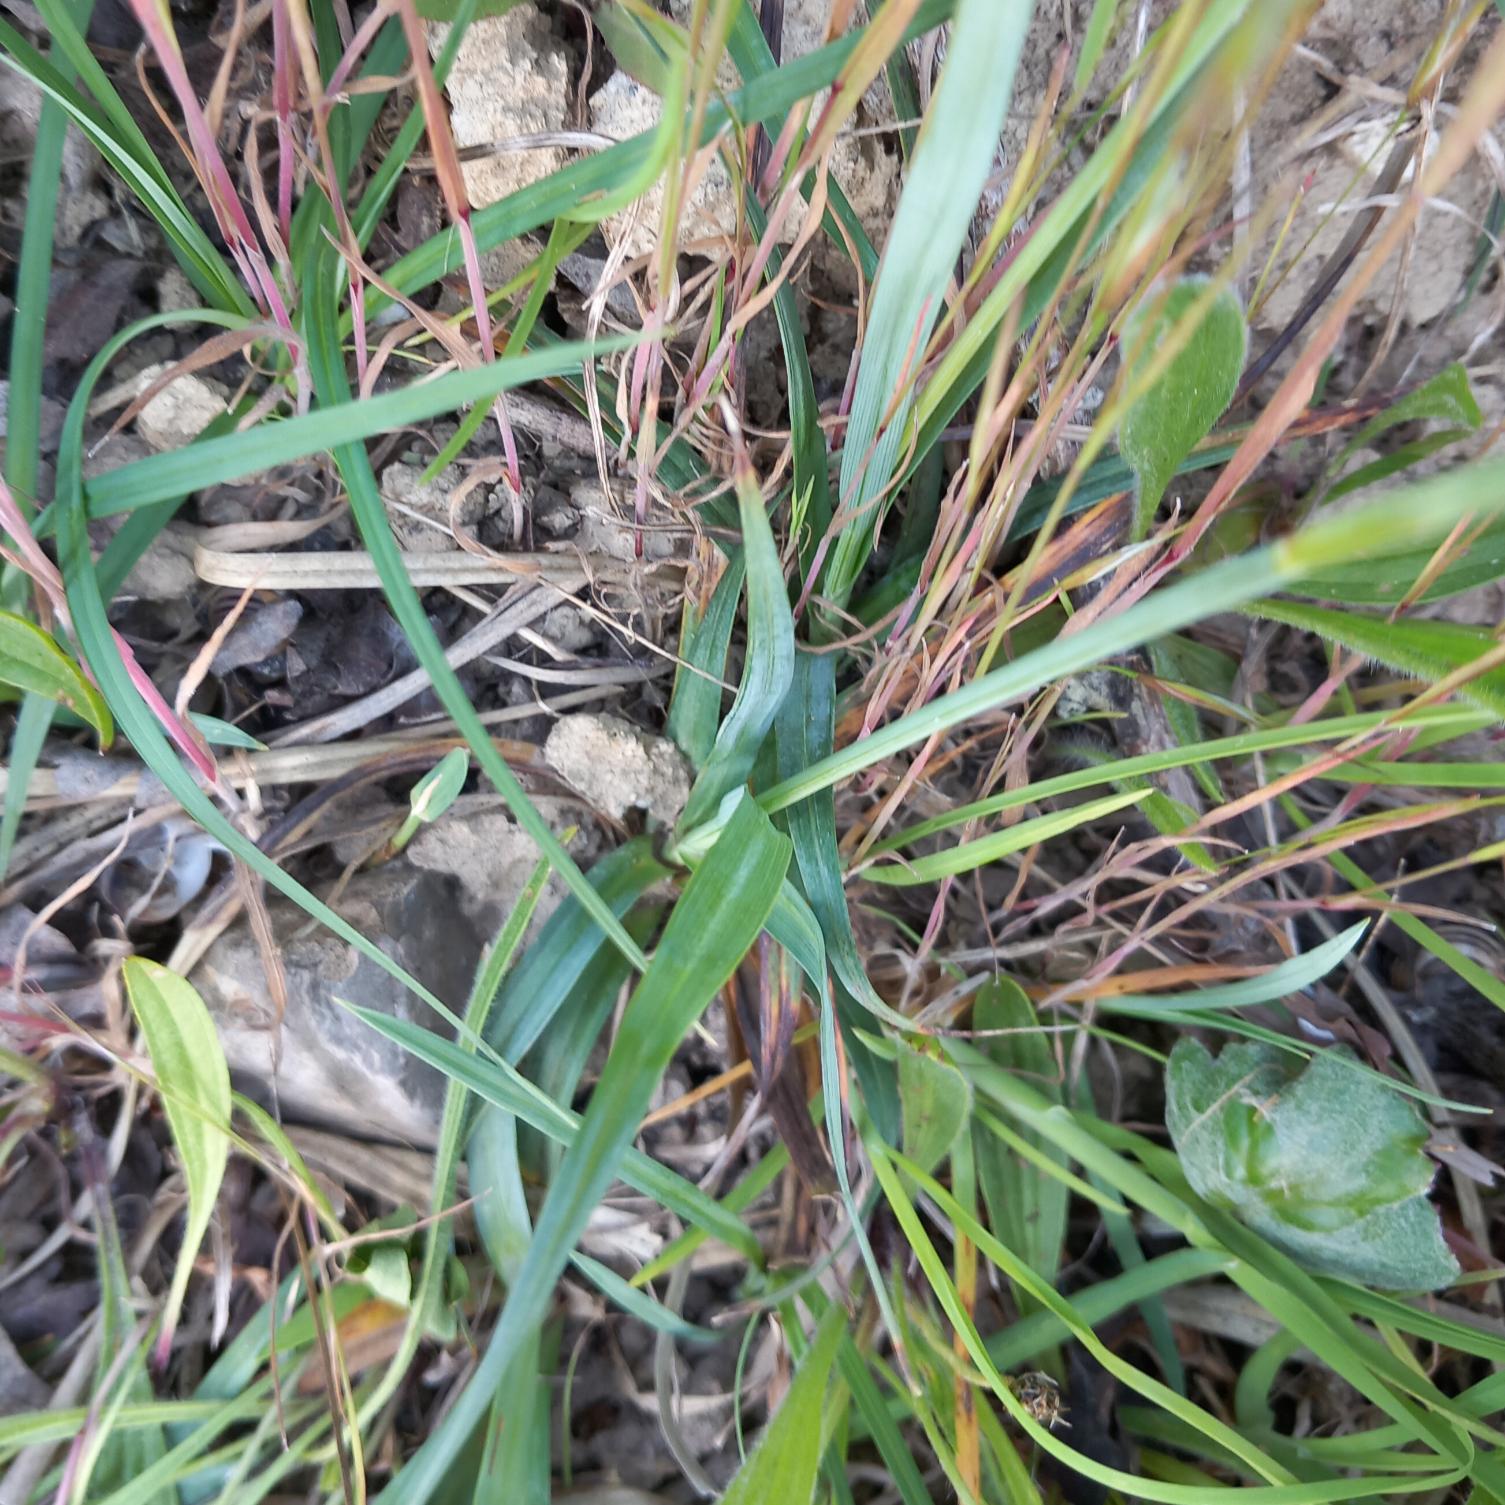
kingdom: Plantae
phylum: Tracheophyta
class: Liliopsida
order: Poales
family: Cyperaceae
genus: Carex
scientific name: Carex flacca
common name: Blågrøn star
